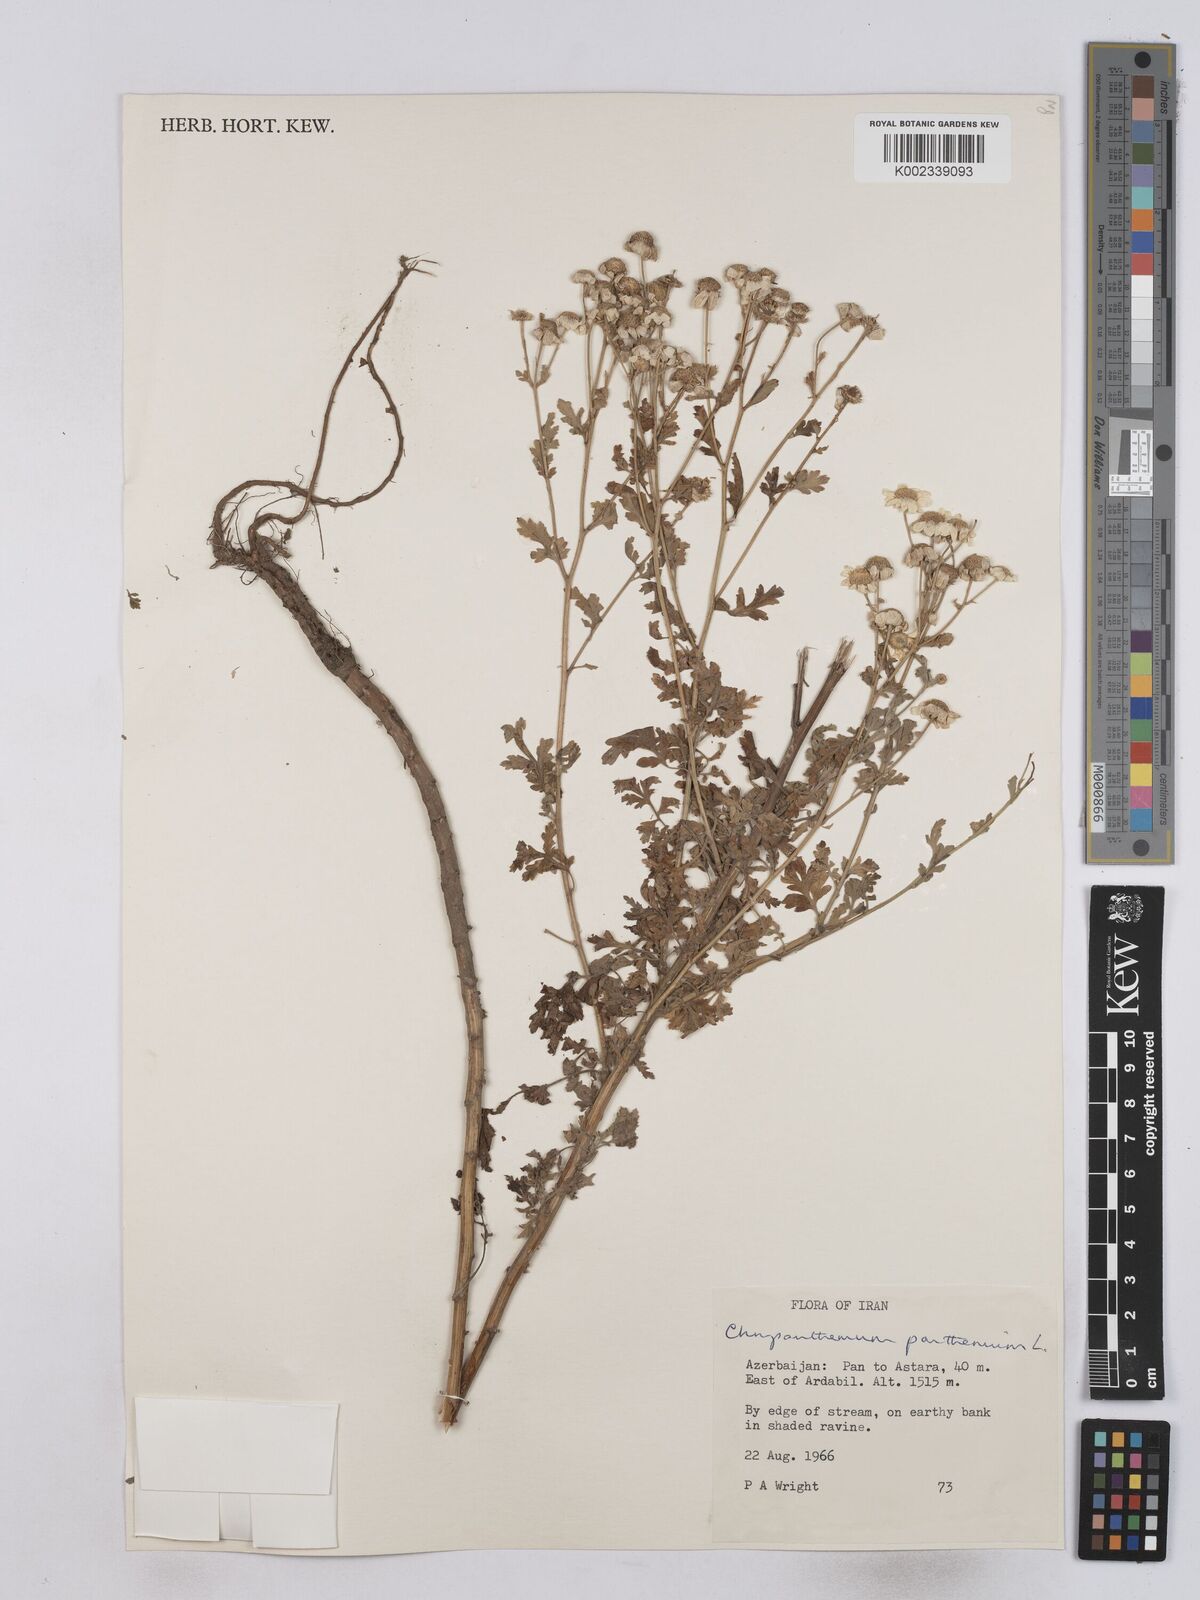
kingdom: Plantae
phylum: Tracheophyta
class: Magnoliopsida
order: Asterales
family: Asteraceae
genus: Tanacetum
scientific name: Tanacetum parthenium
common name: Feverfew
